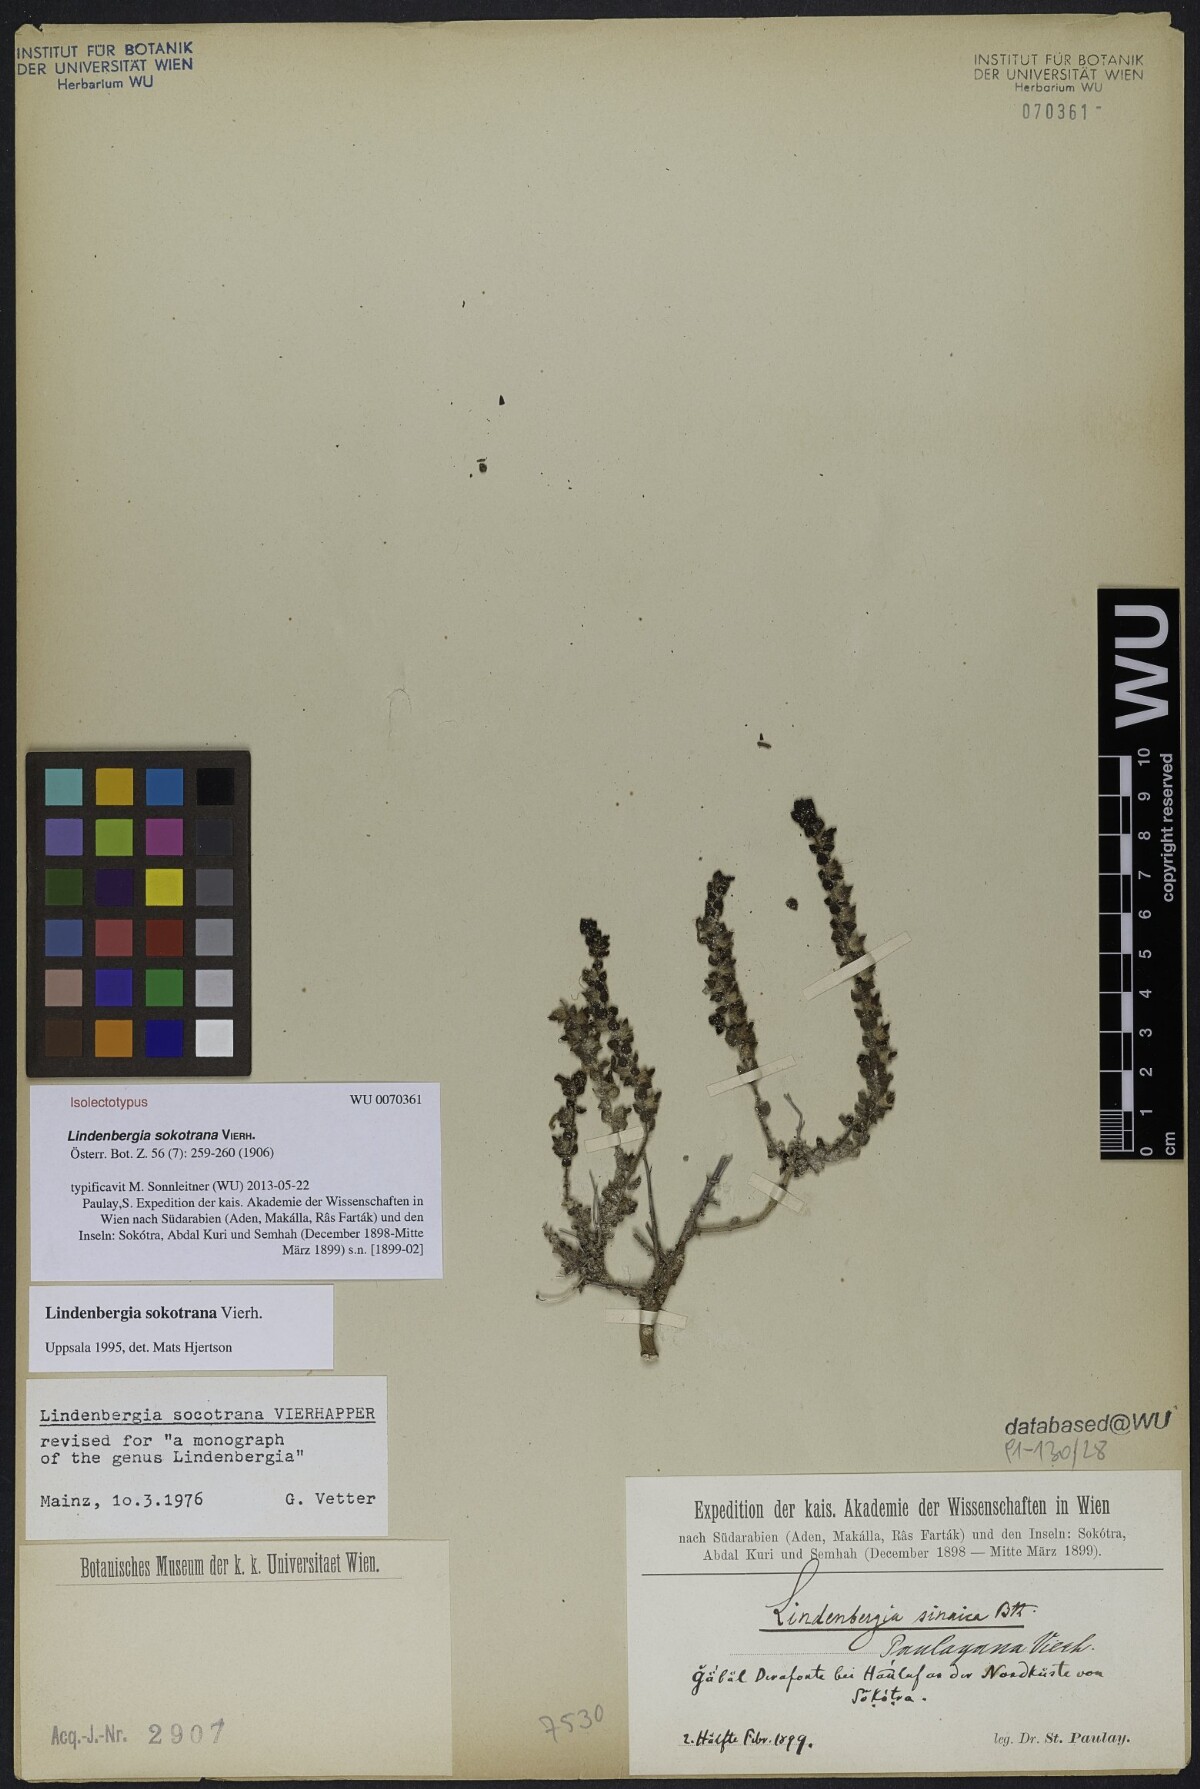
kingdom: Plantae
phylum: Tracheophyta
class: Magnoliopsida
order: Lamiales
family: Orobanchaceae
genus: Lindenbergia
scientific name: Lindenbergia sokotrana
